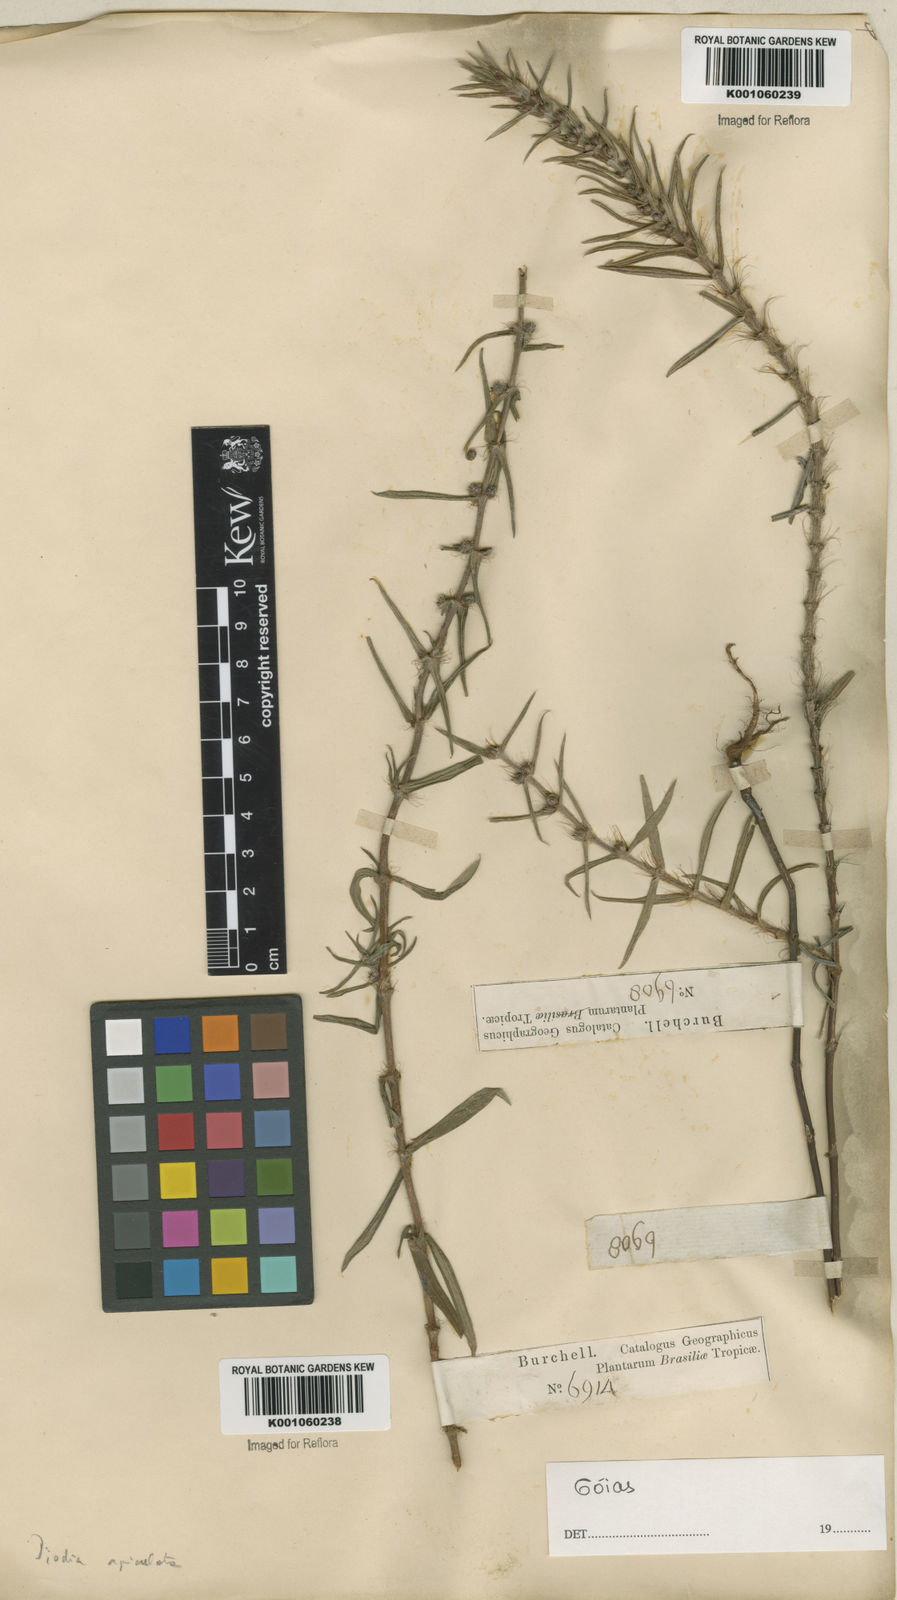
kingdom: Plantae
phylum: Tracheophyta
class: Magnoliopsida
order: Gentianales
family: Rubiaceae
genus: Hexasepalum
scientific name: Hexasepalum apiculatum
